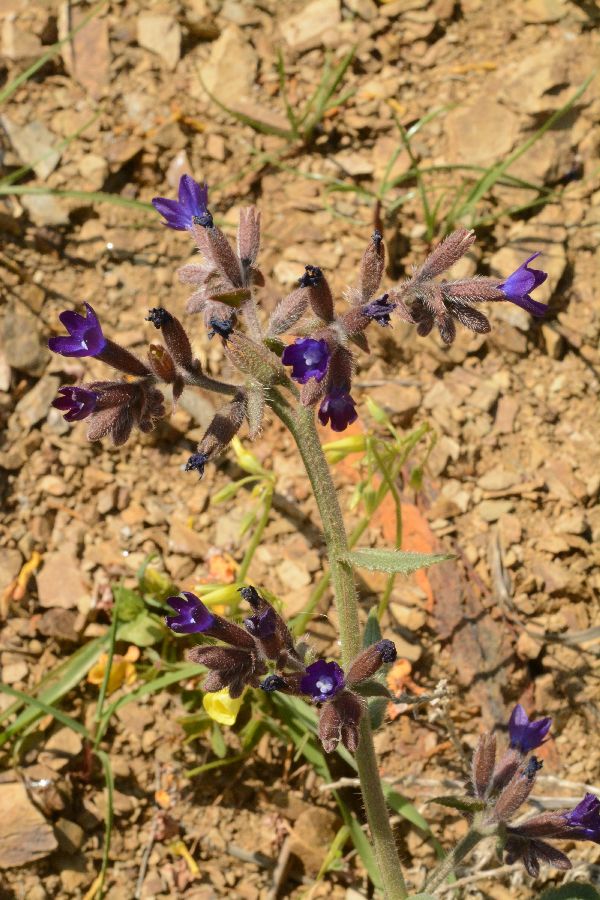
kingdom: Plantae
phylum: Tracheophyta
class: Magnoliopsida
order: Boraginales
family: Boraginaceae
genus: Anchusa
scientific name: Anchusa hybrida
